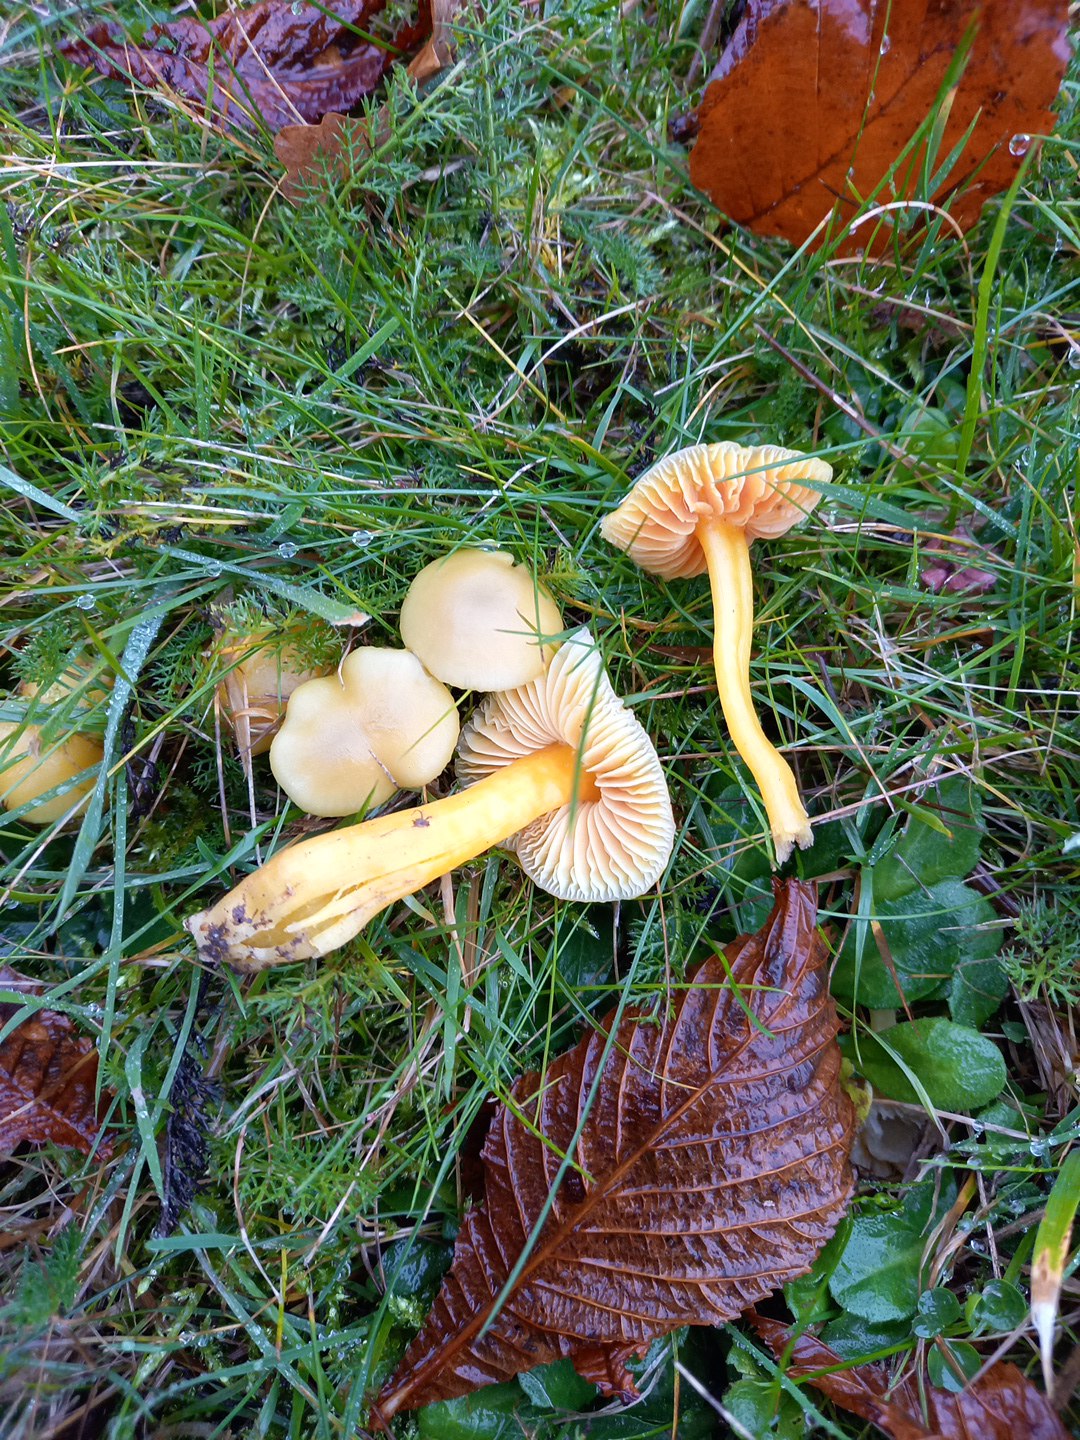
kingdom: Fungi
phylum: Basidiomycota
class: Agaricomycetes
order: Agaricales
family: Hygrophoraceae
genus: Hygrocybe
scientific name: Hygrocybe chlorophana
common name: gul vokshat
